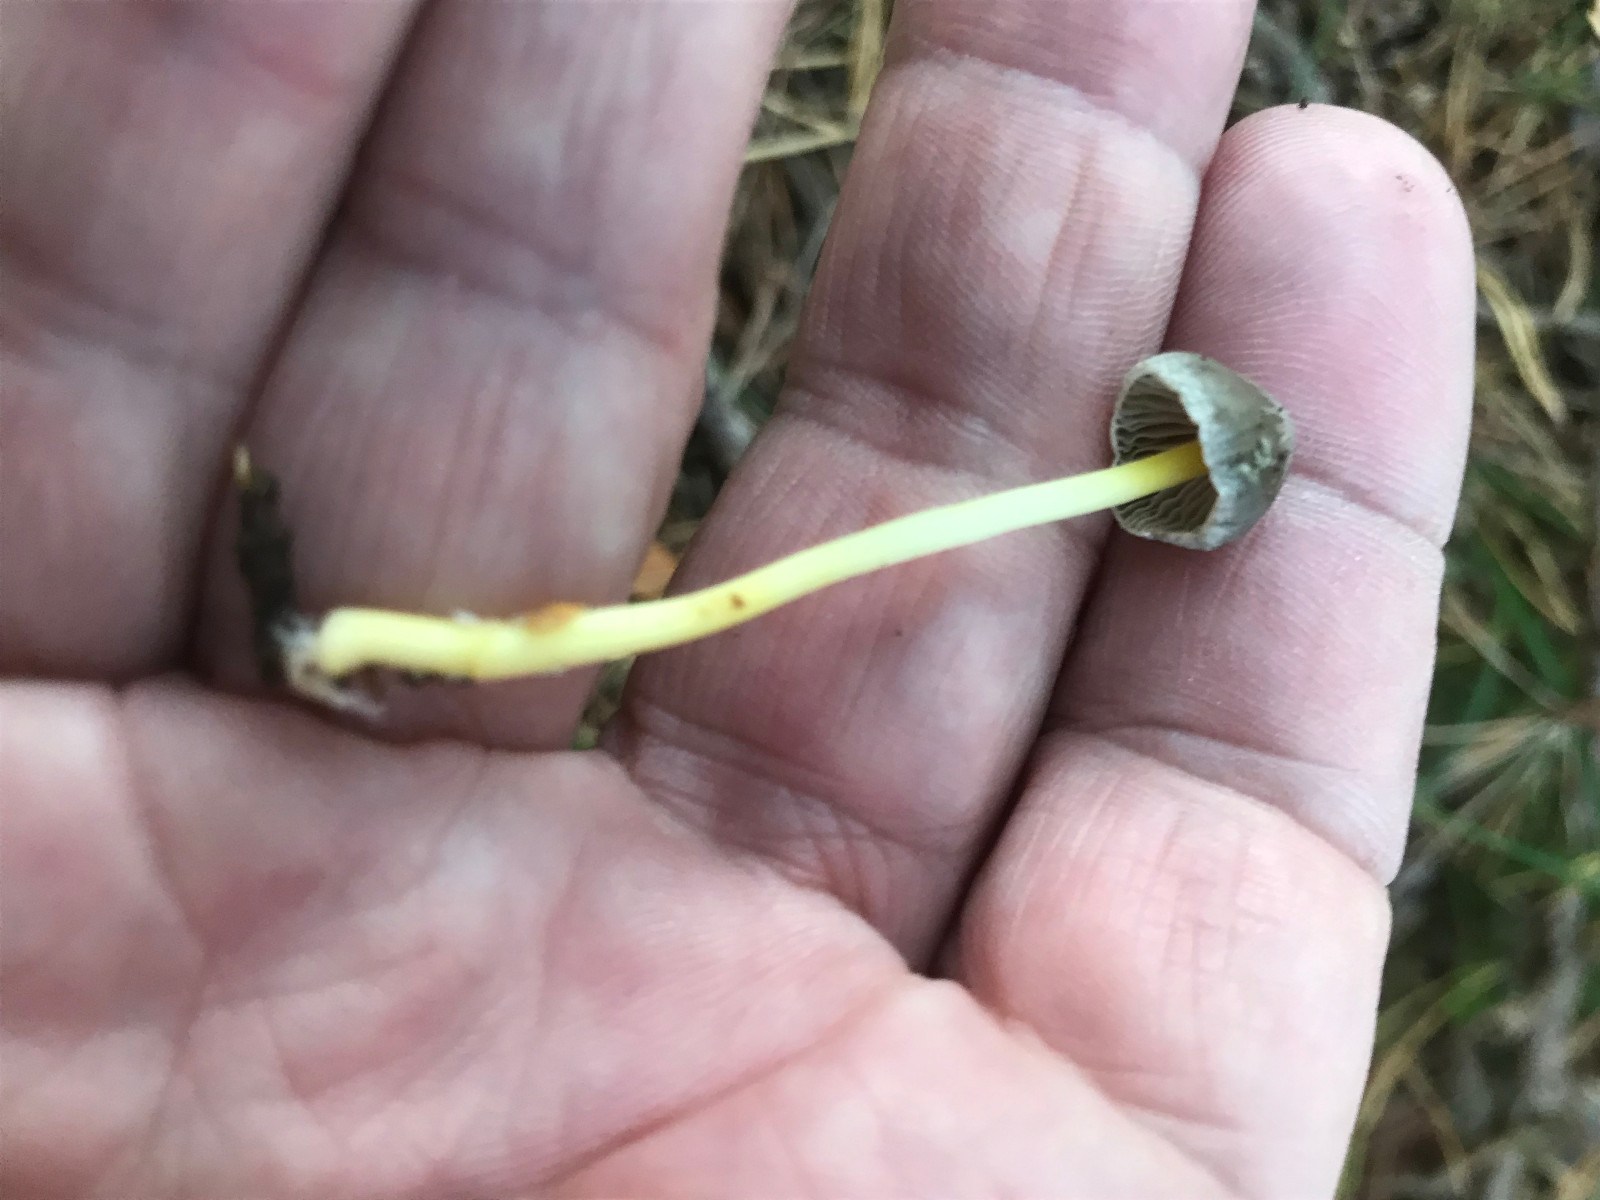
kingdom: Fungi
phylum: Basidiomycota
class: Agaricomycetes
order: Agaricales
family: Mycenaceae
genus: Mycena
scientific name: Mycena
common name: huesvamp
